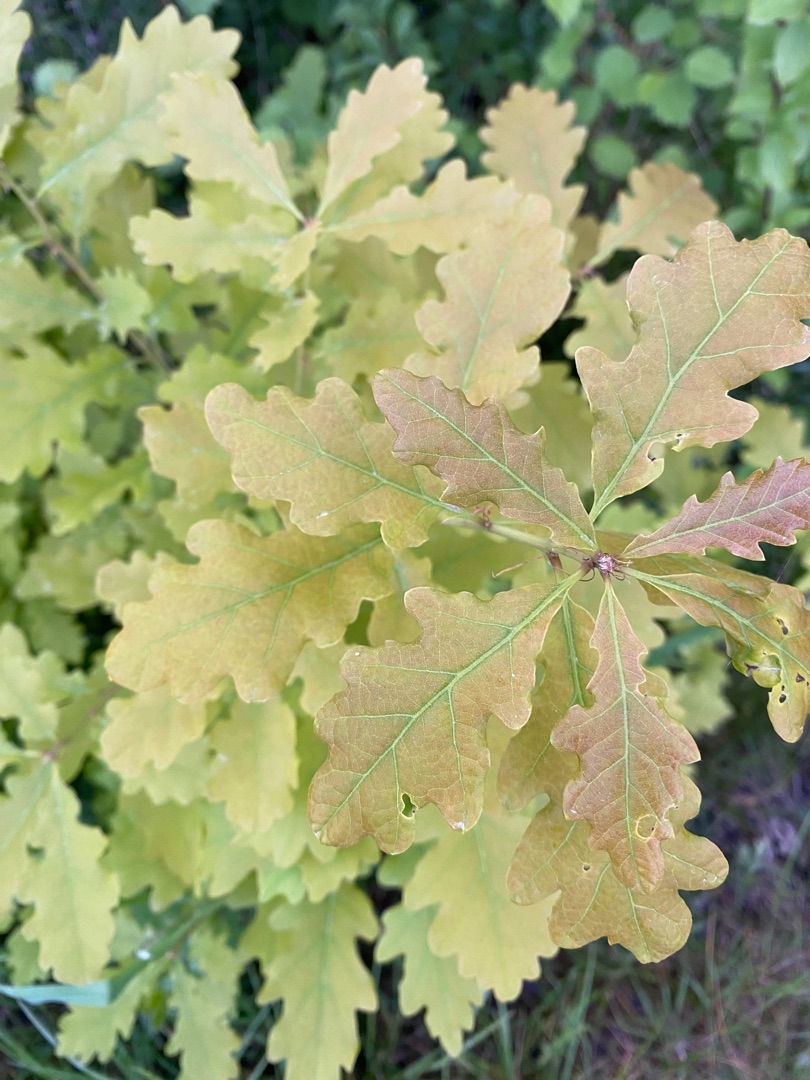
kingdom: Plantae
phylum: Tracheophyta
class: Magnoliopsida
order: Fagales
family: Fagaceae
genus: Quercus
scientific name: Quercus robur
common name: Stilk-eg/almindelig eg
